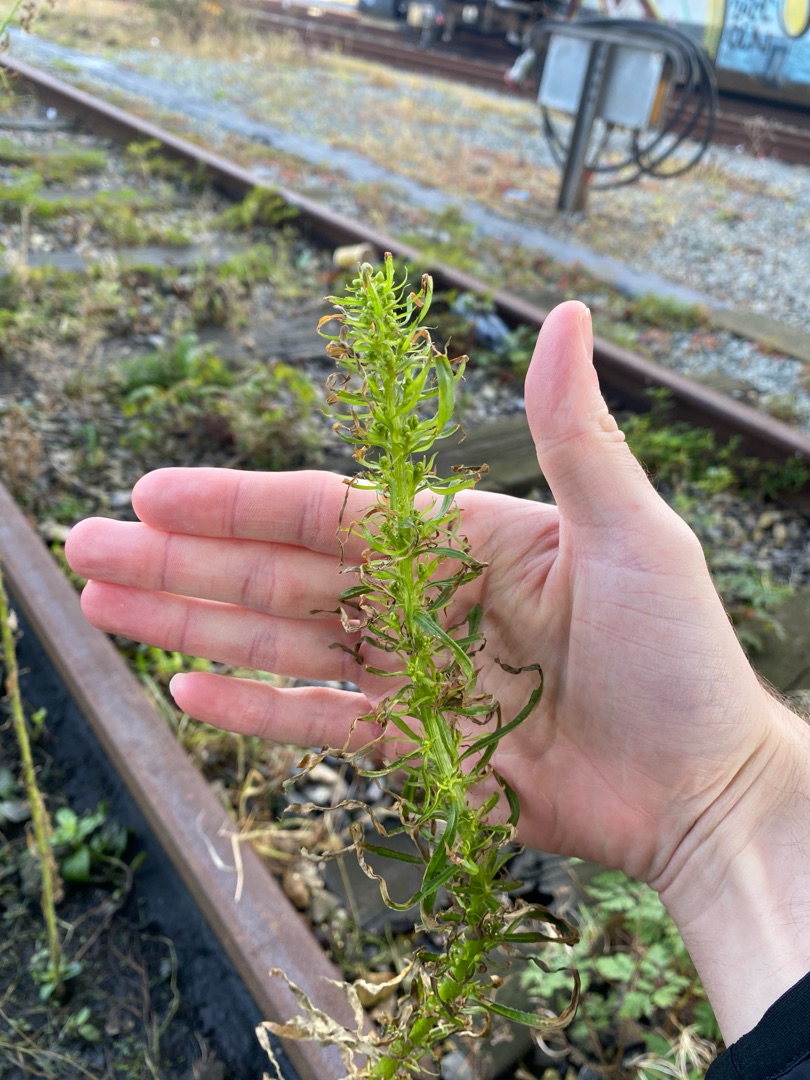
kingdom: Plantae
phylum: Tracheophyta
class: Magnoliopsida
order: Asterales
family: Asteraceae
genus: Erigeron
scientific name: Erigeron canadensis
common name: Kanadisk bakkestjerne
